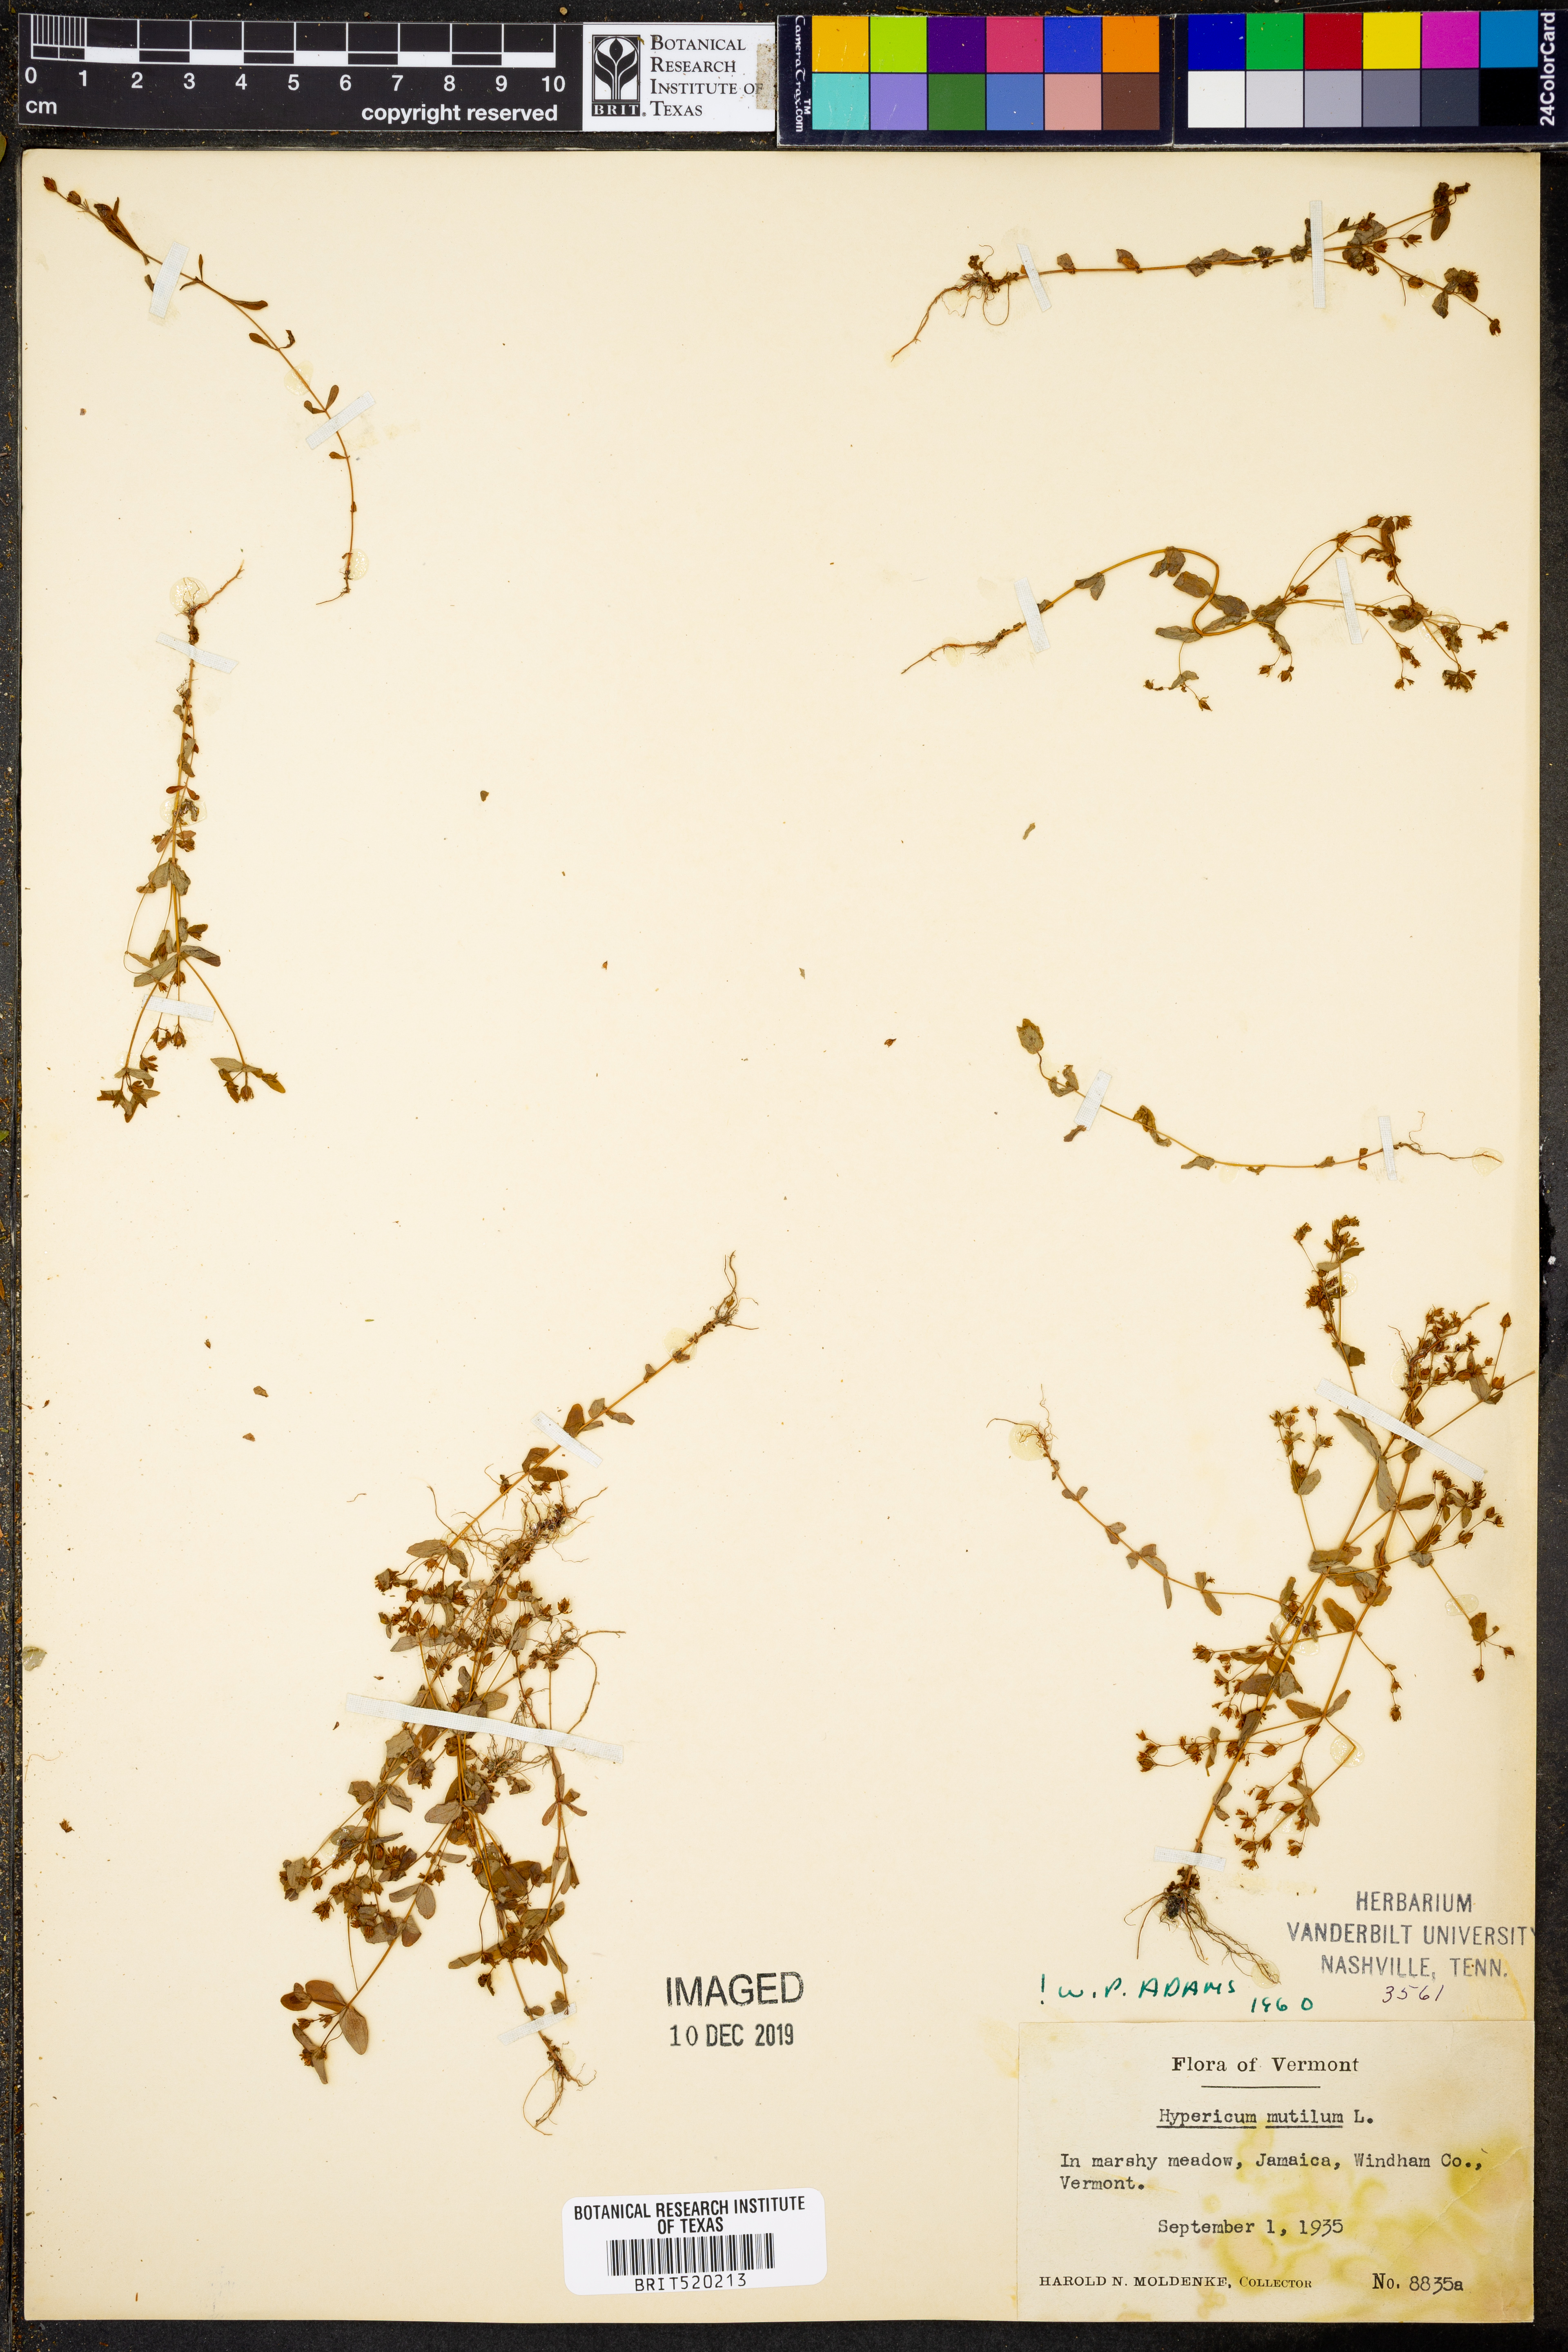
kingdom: Plantae
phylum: Tracheophyta
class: Magnoliopsida
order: Malpighiales
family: Hypericaceae
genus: Hypericum
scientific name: Hypericum mutilum
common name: Dwarf st. john's-wort
